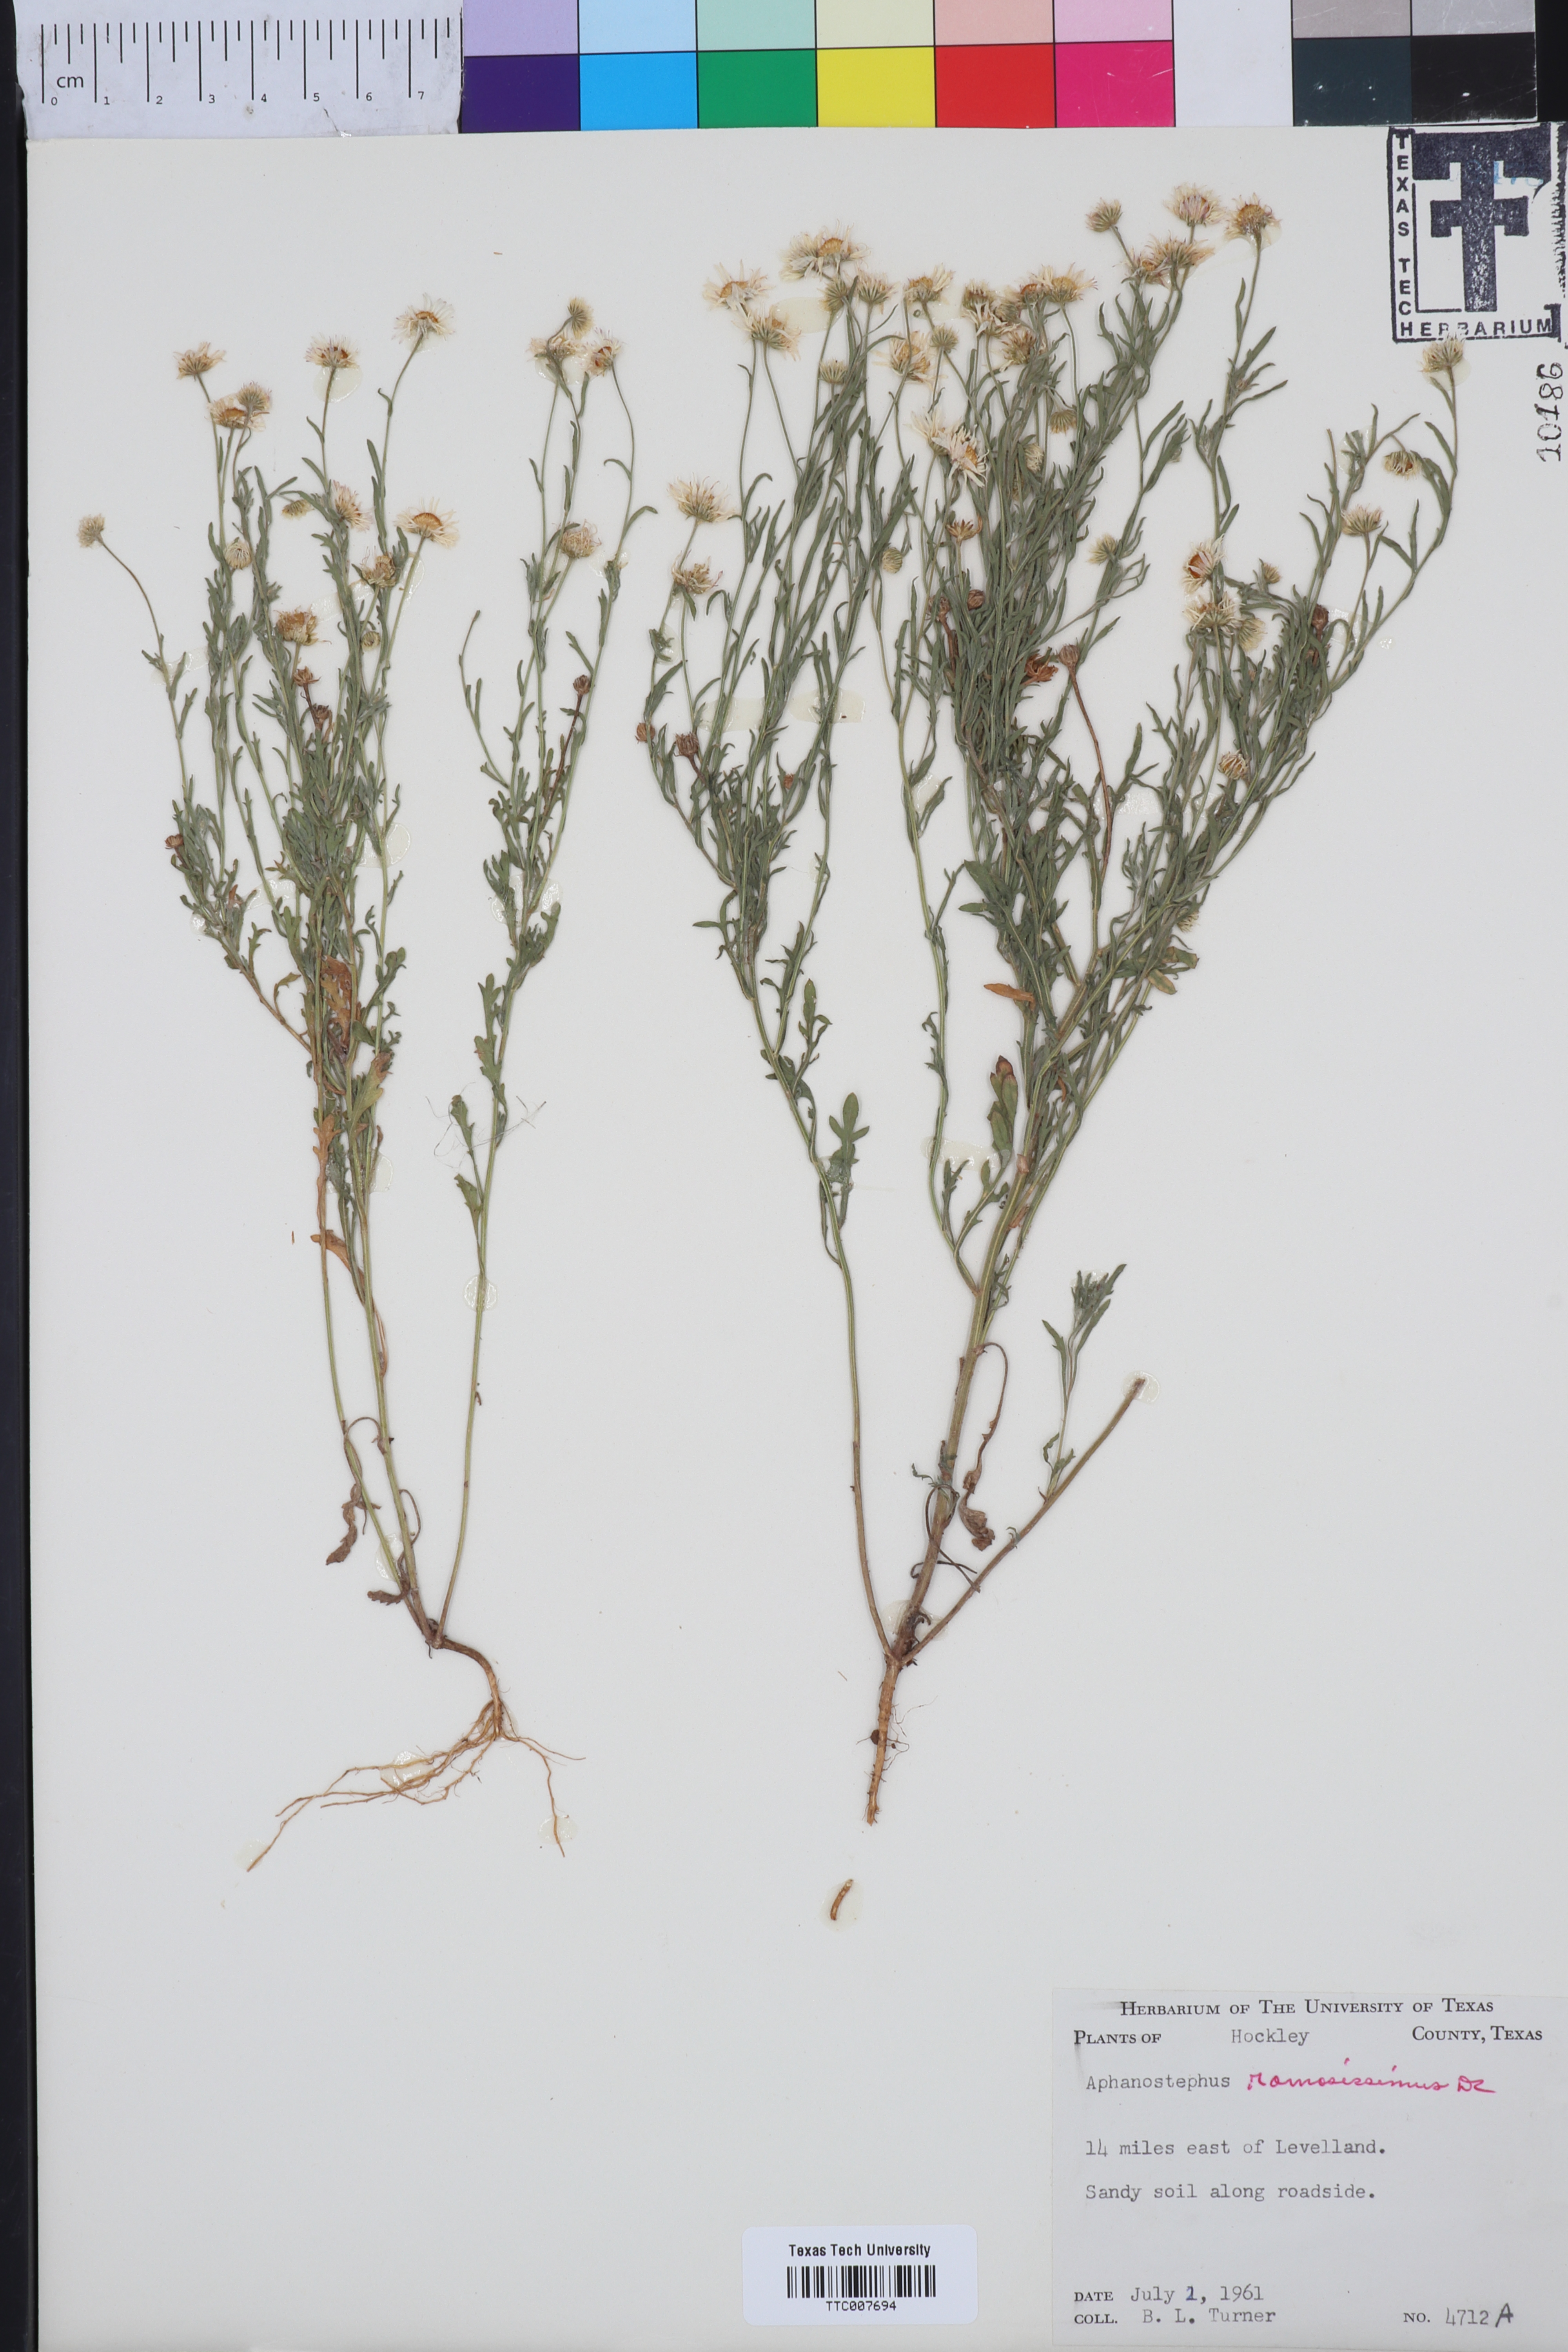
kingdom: Plantae
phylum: Tracheophyta
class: Magnoliopsida
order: Asterales
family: Asteraceae
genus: Aphanostephus
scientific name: Aphanostephus ramosissimus
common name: Plains lazy daisy
